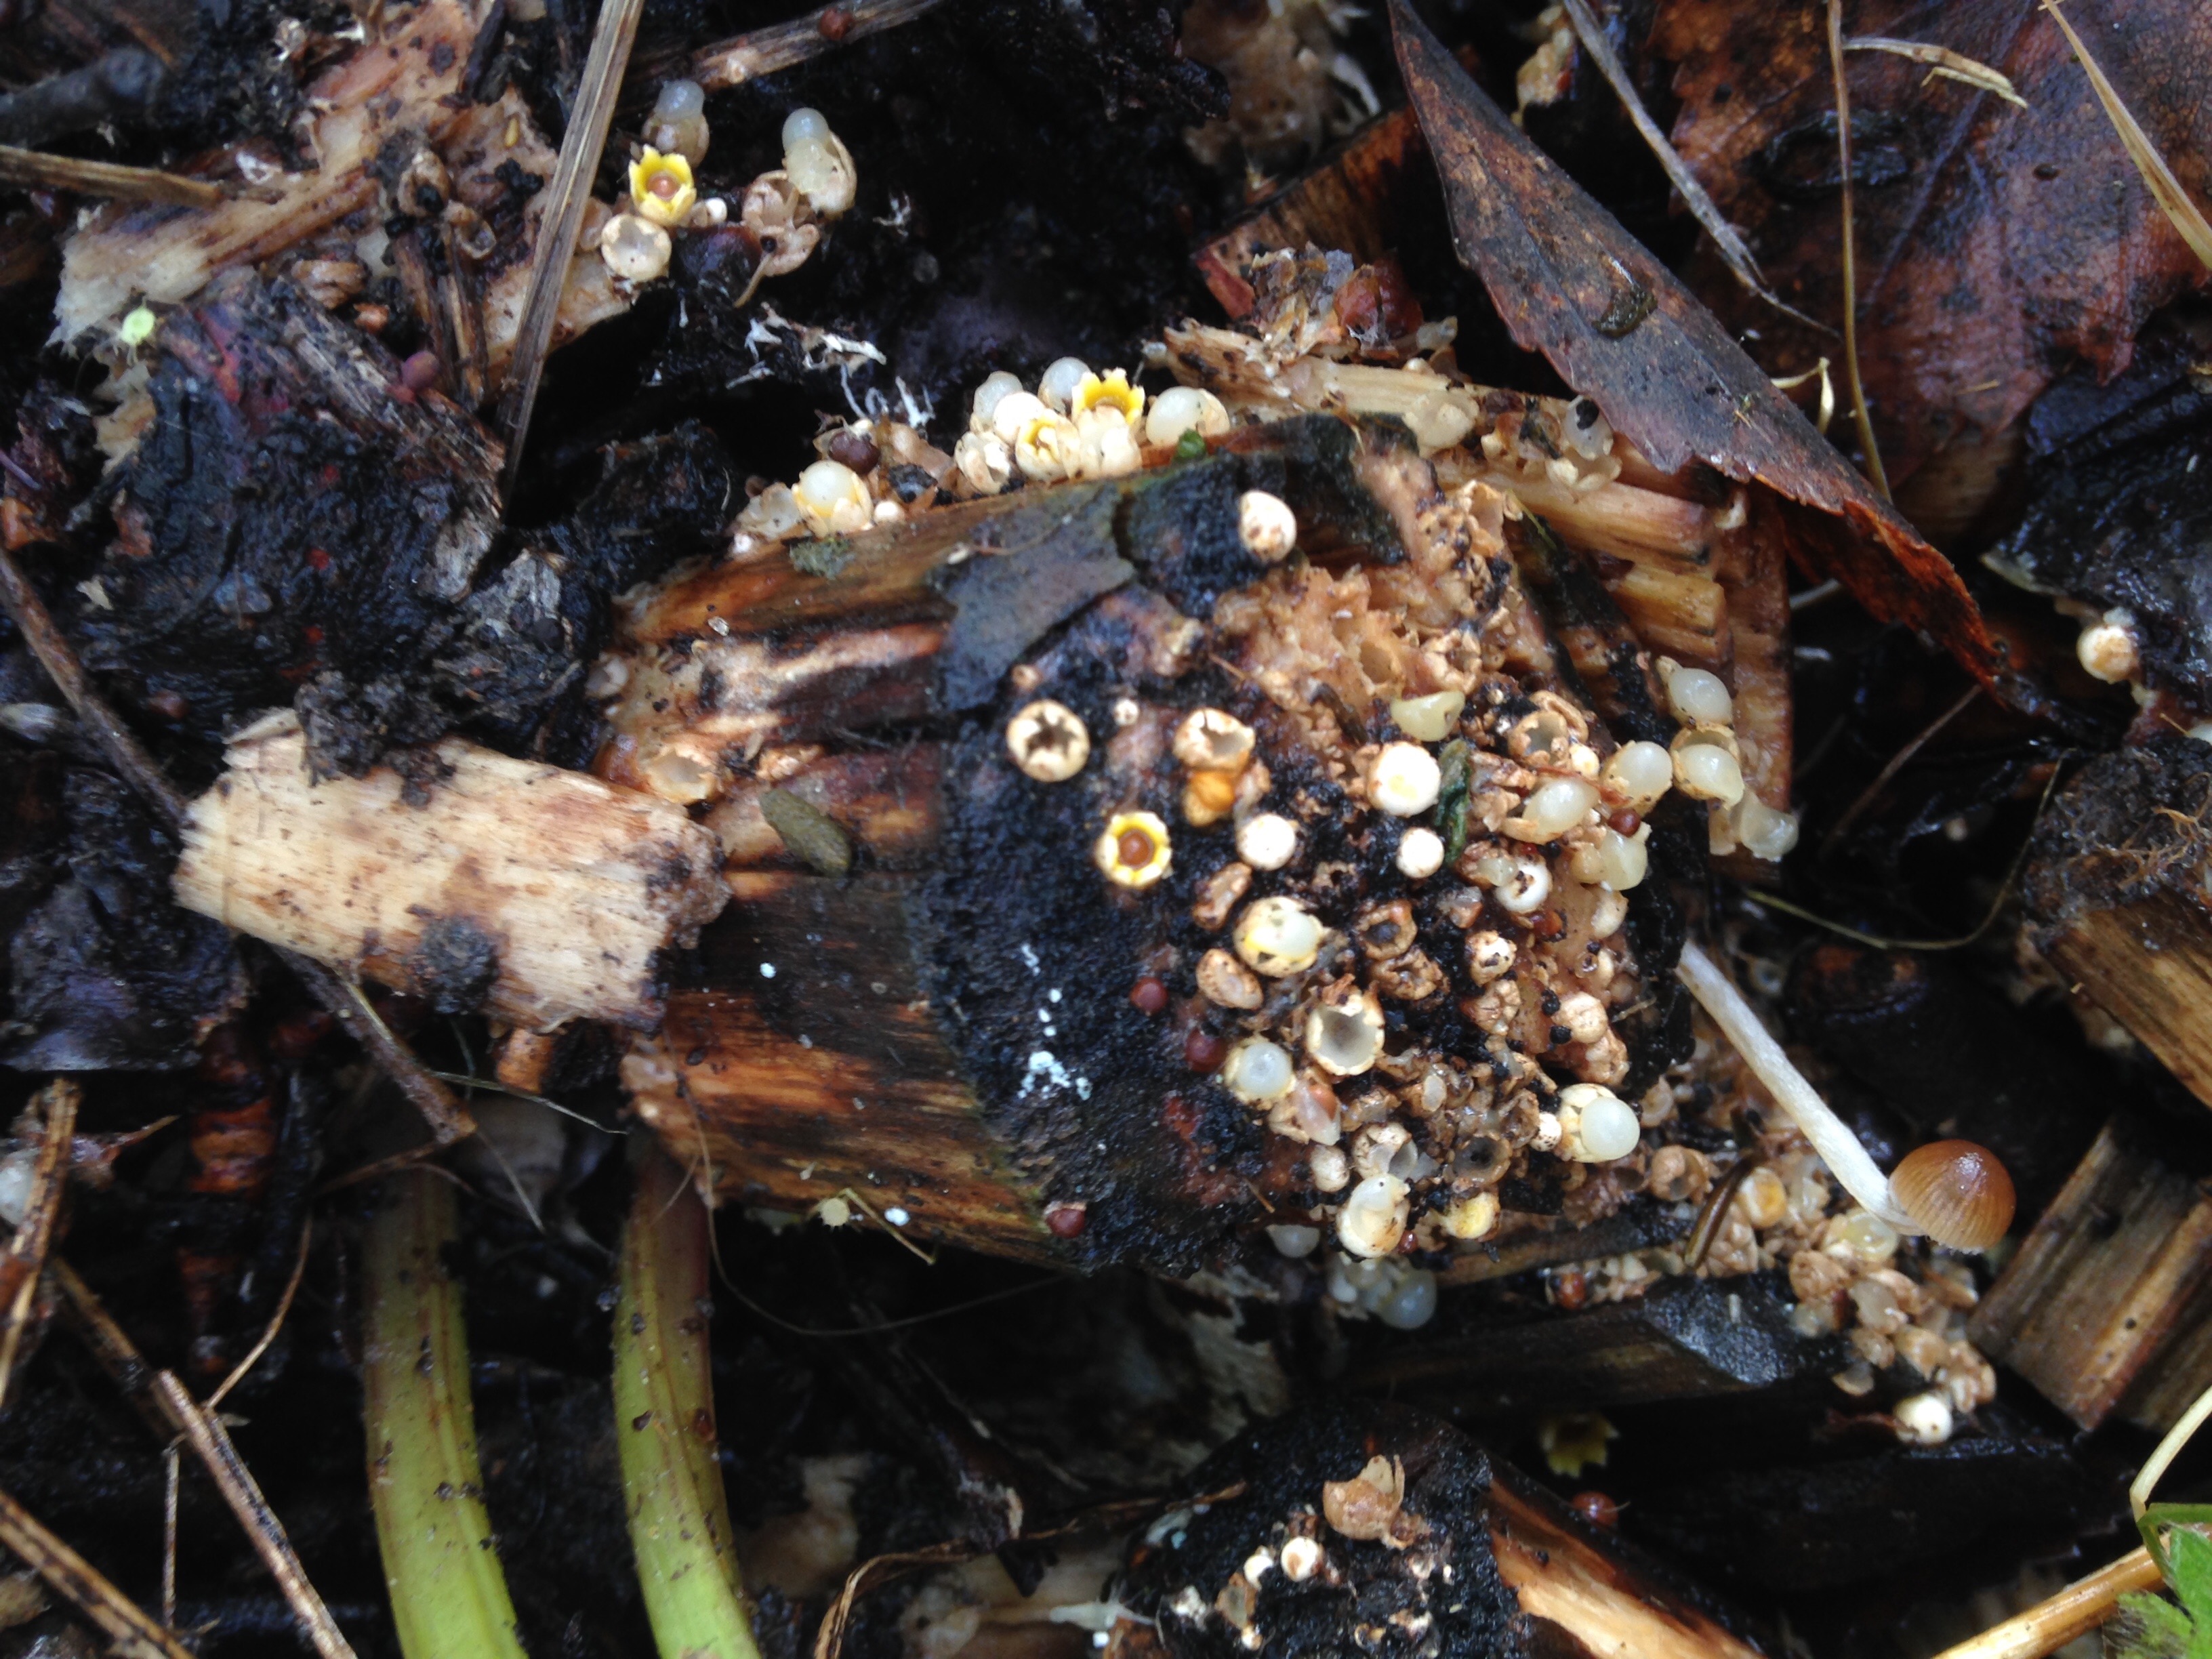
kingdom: Fungi
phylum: Basidiomycota
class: Agaricomycetes
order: Geastrales
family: Geastraceae
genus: Sphaerobolus
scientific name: Sphaerobolus stellatus
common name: Cannon fungus
